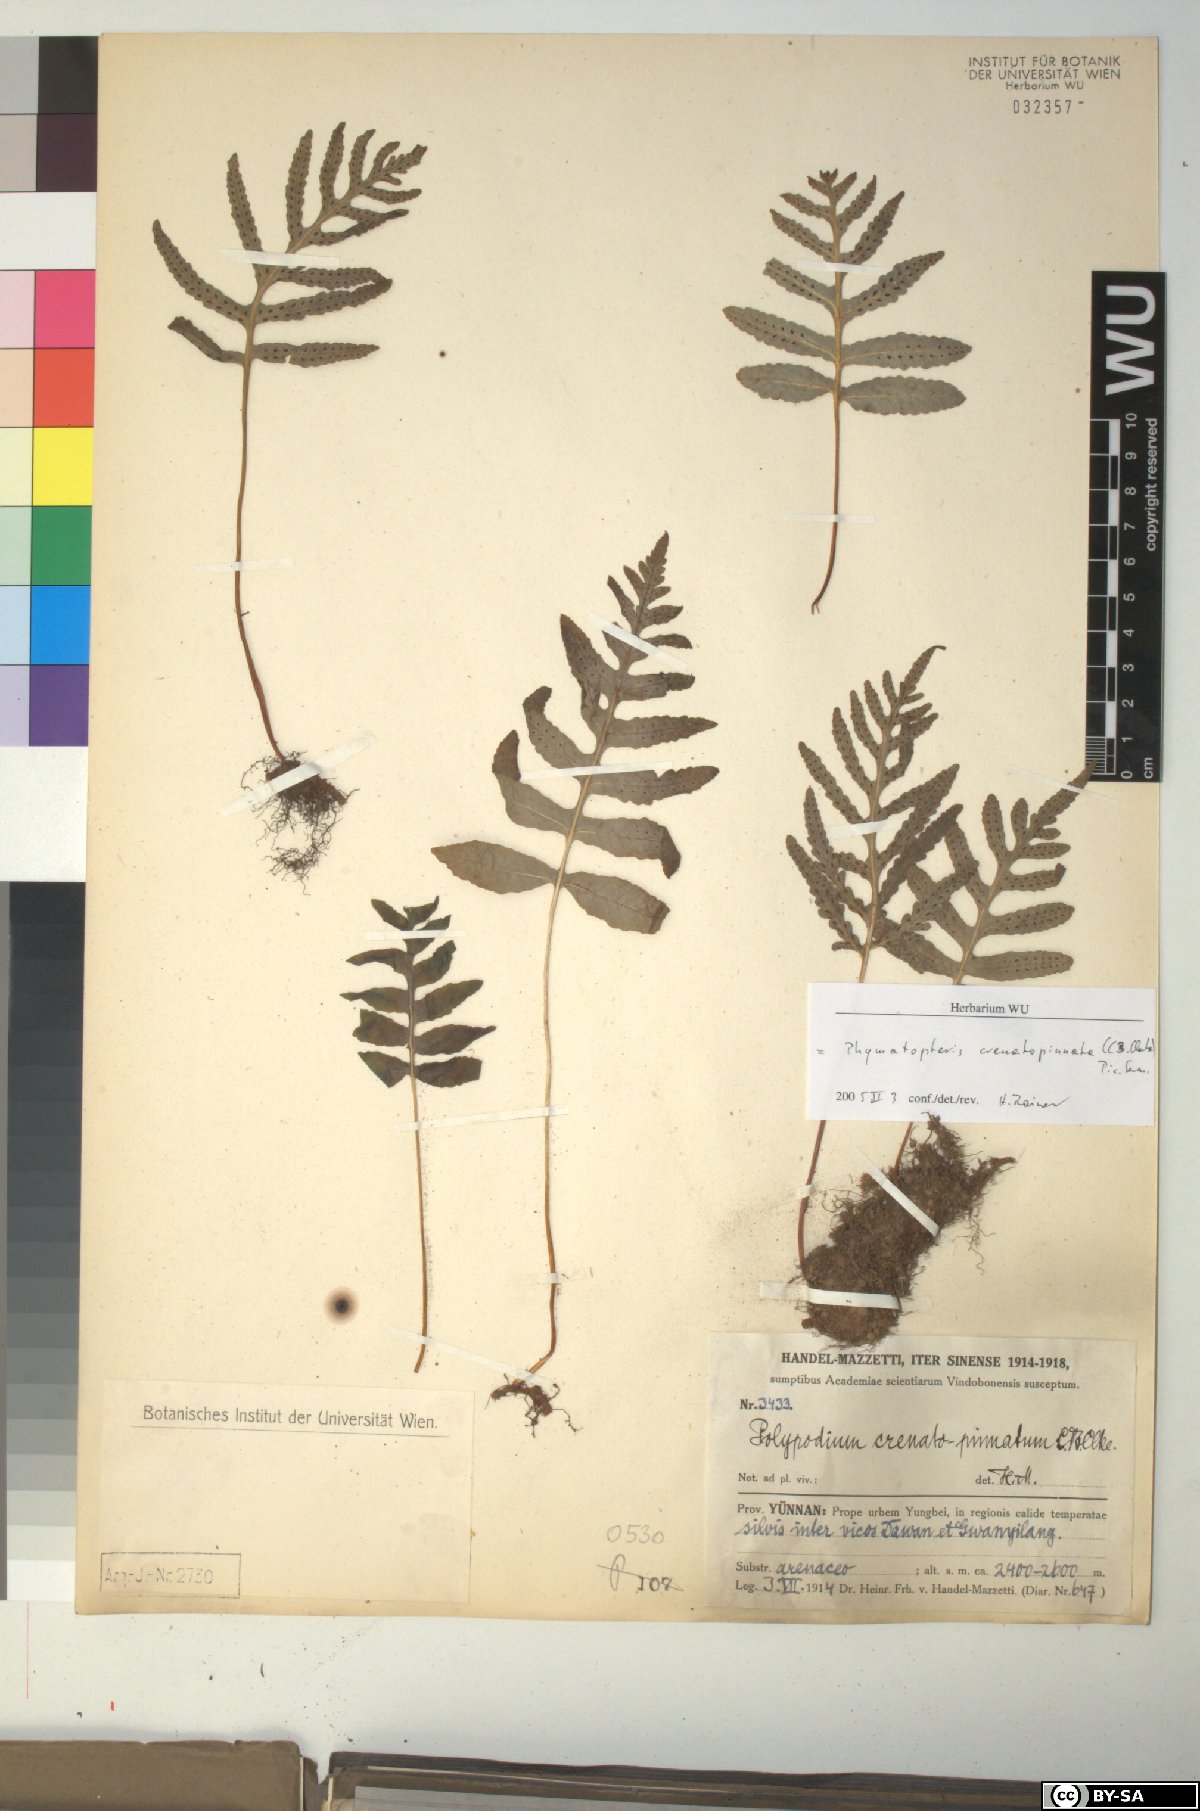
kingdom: Plantae
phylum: Tracheophyta
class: Polypodiopsida
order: Polypodiales
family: Polypodiaceae
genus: Selliguea
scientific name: Selliguea crenatopinnata
